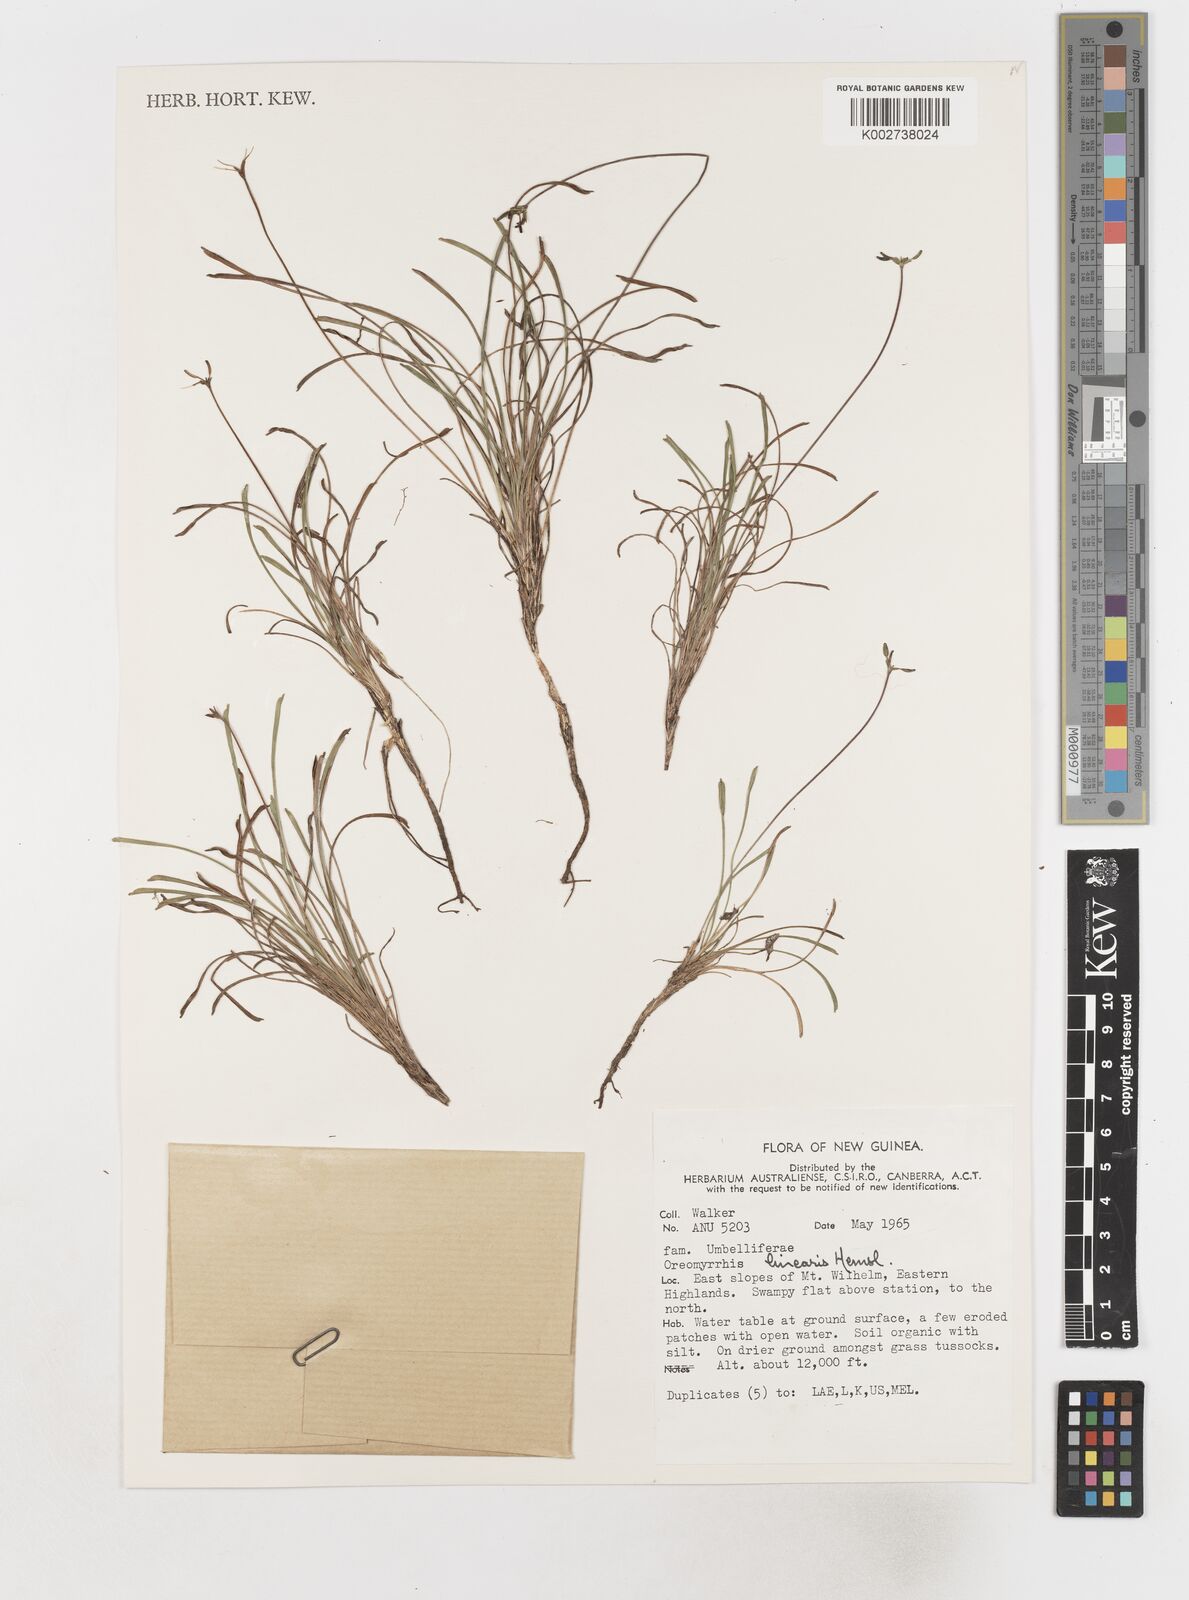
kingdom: Plantae
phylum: Tracheophyta
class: Magnoliopsida
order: Apiales
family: Apiaceae
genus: Chaerophyllum
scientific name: Chaerophyllum lineare
